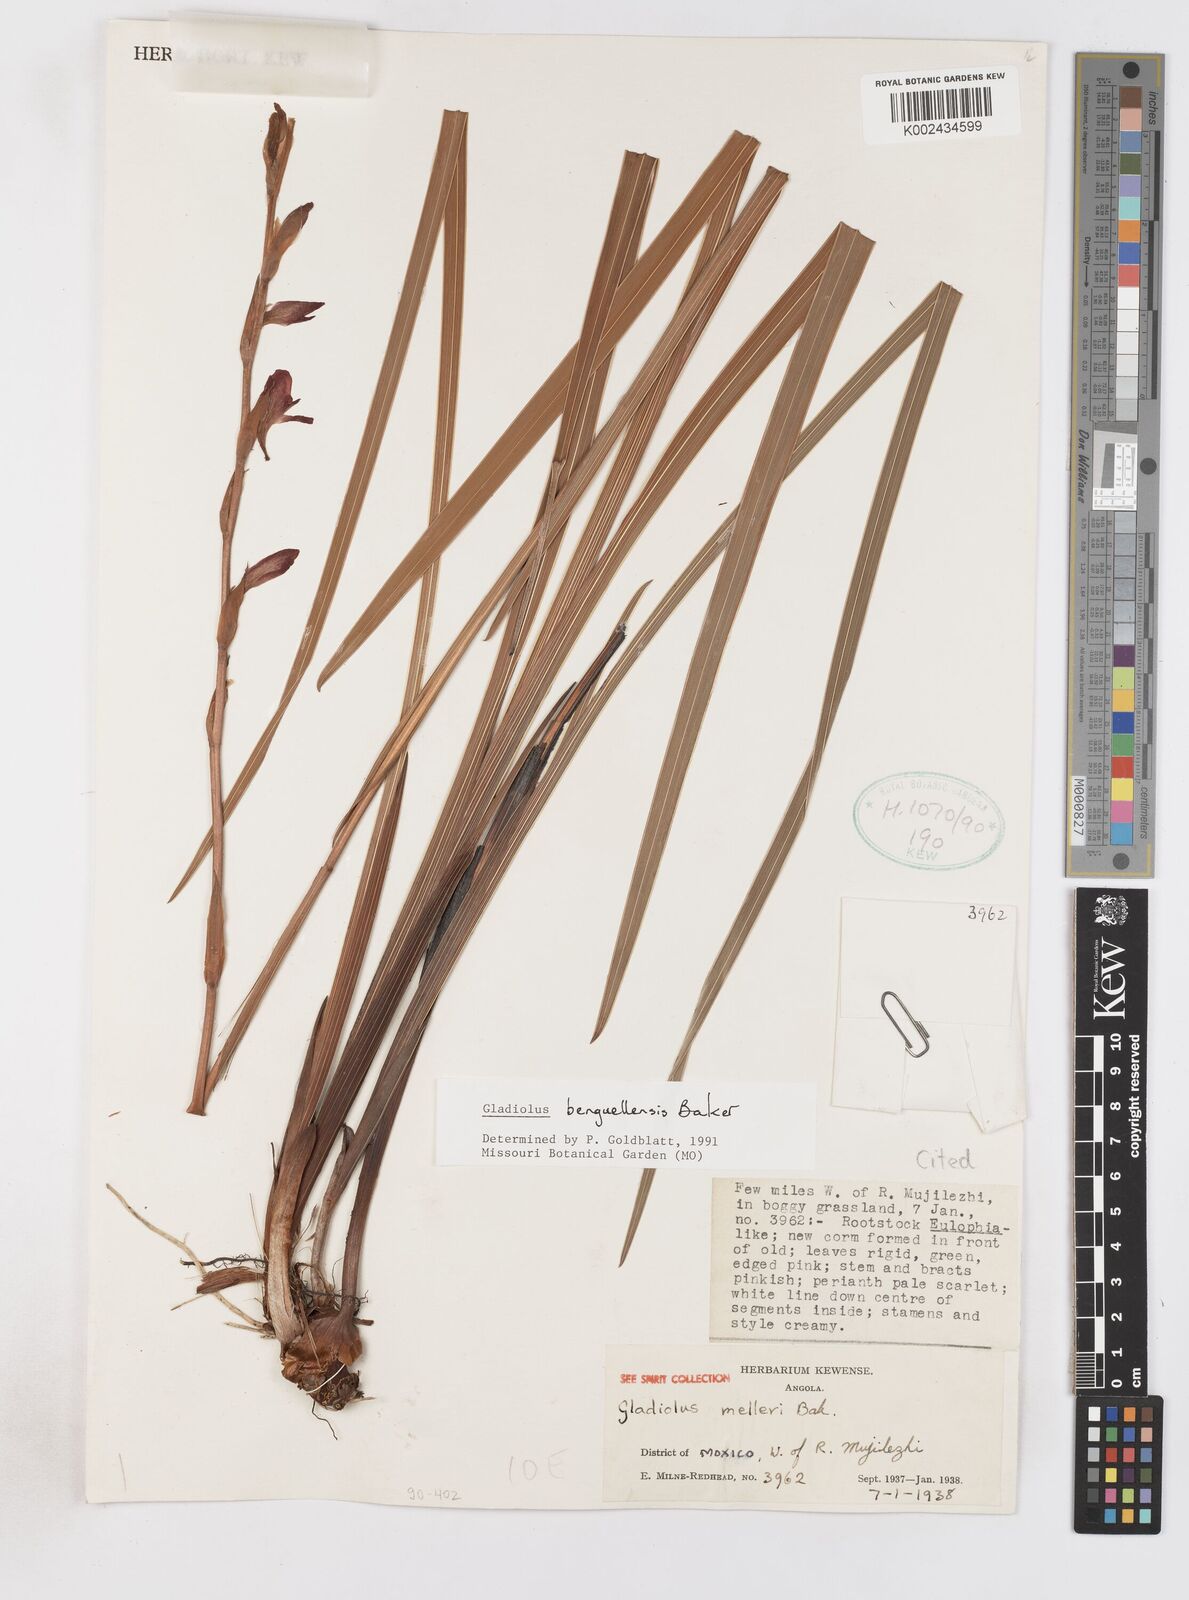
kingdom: Plantae
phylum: Tracheophyta
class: Liliopsida
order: Asparagales
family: Iridaceae
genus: Gladiolus
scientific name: Gladiolus benguellensis
